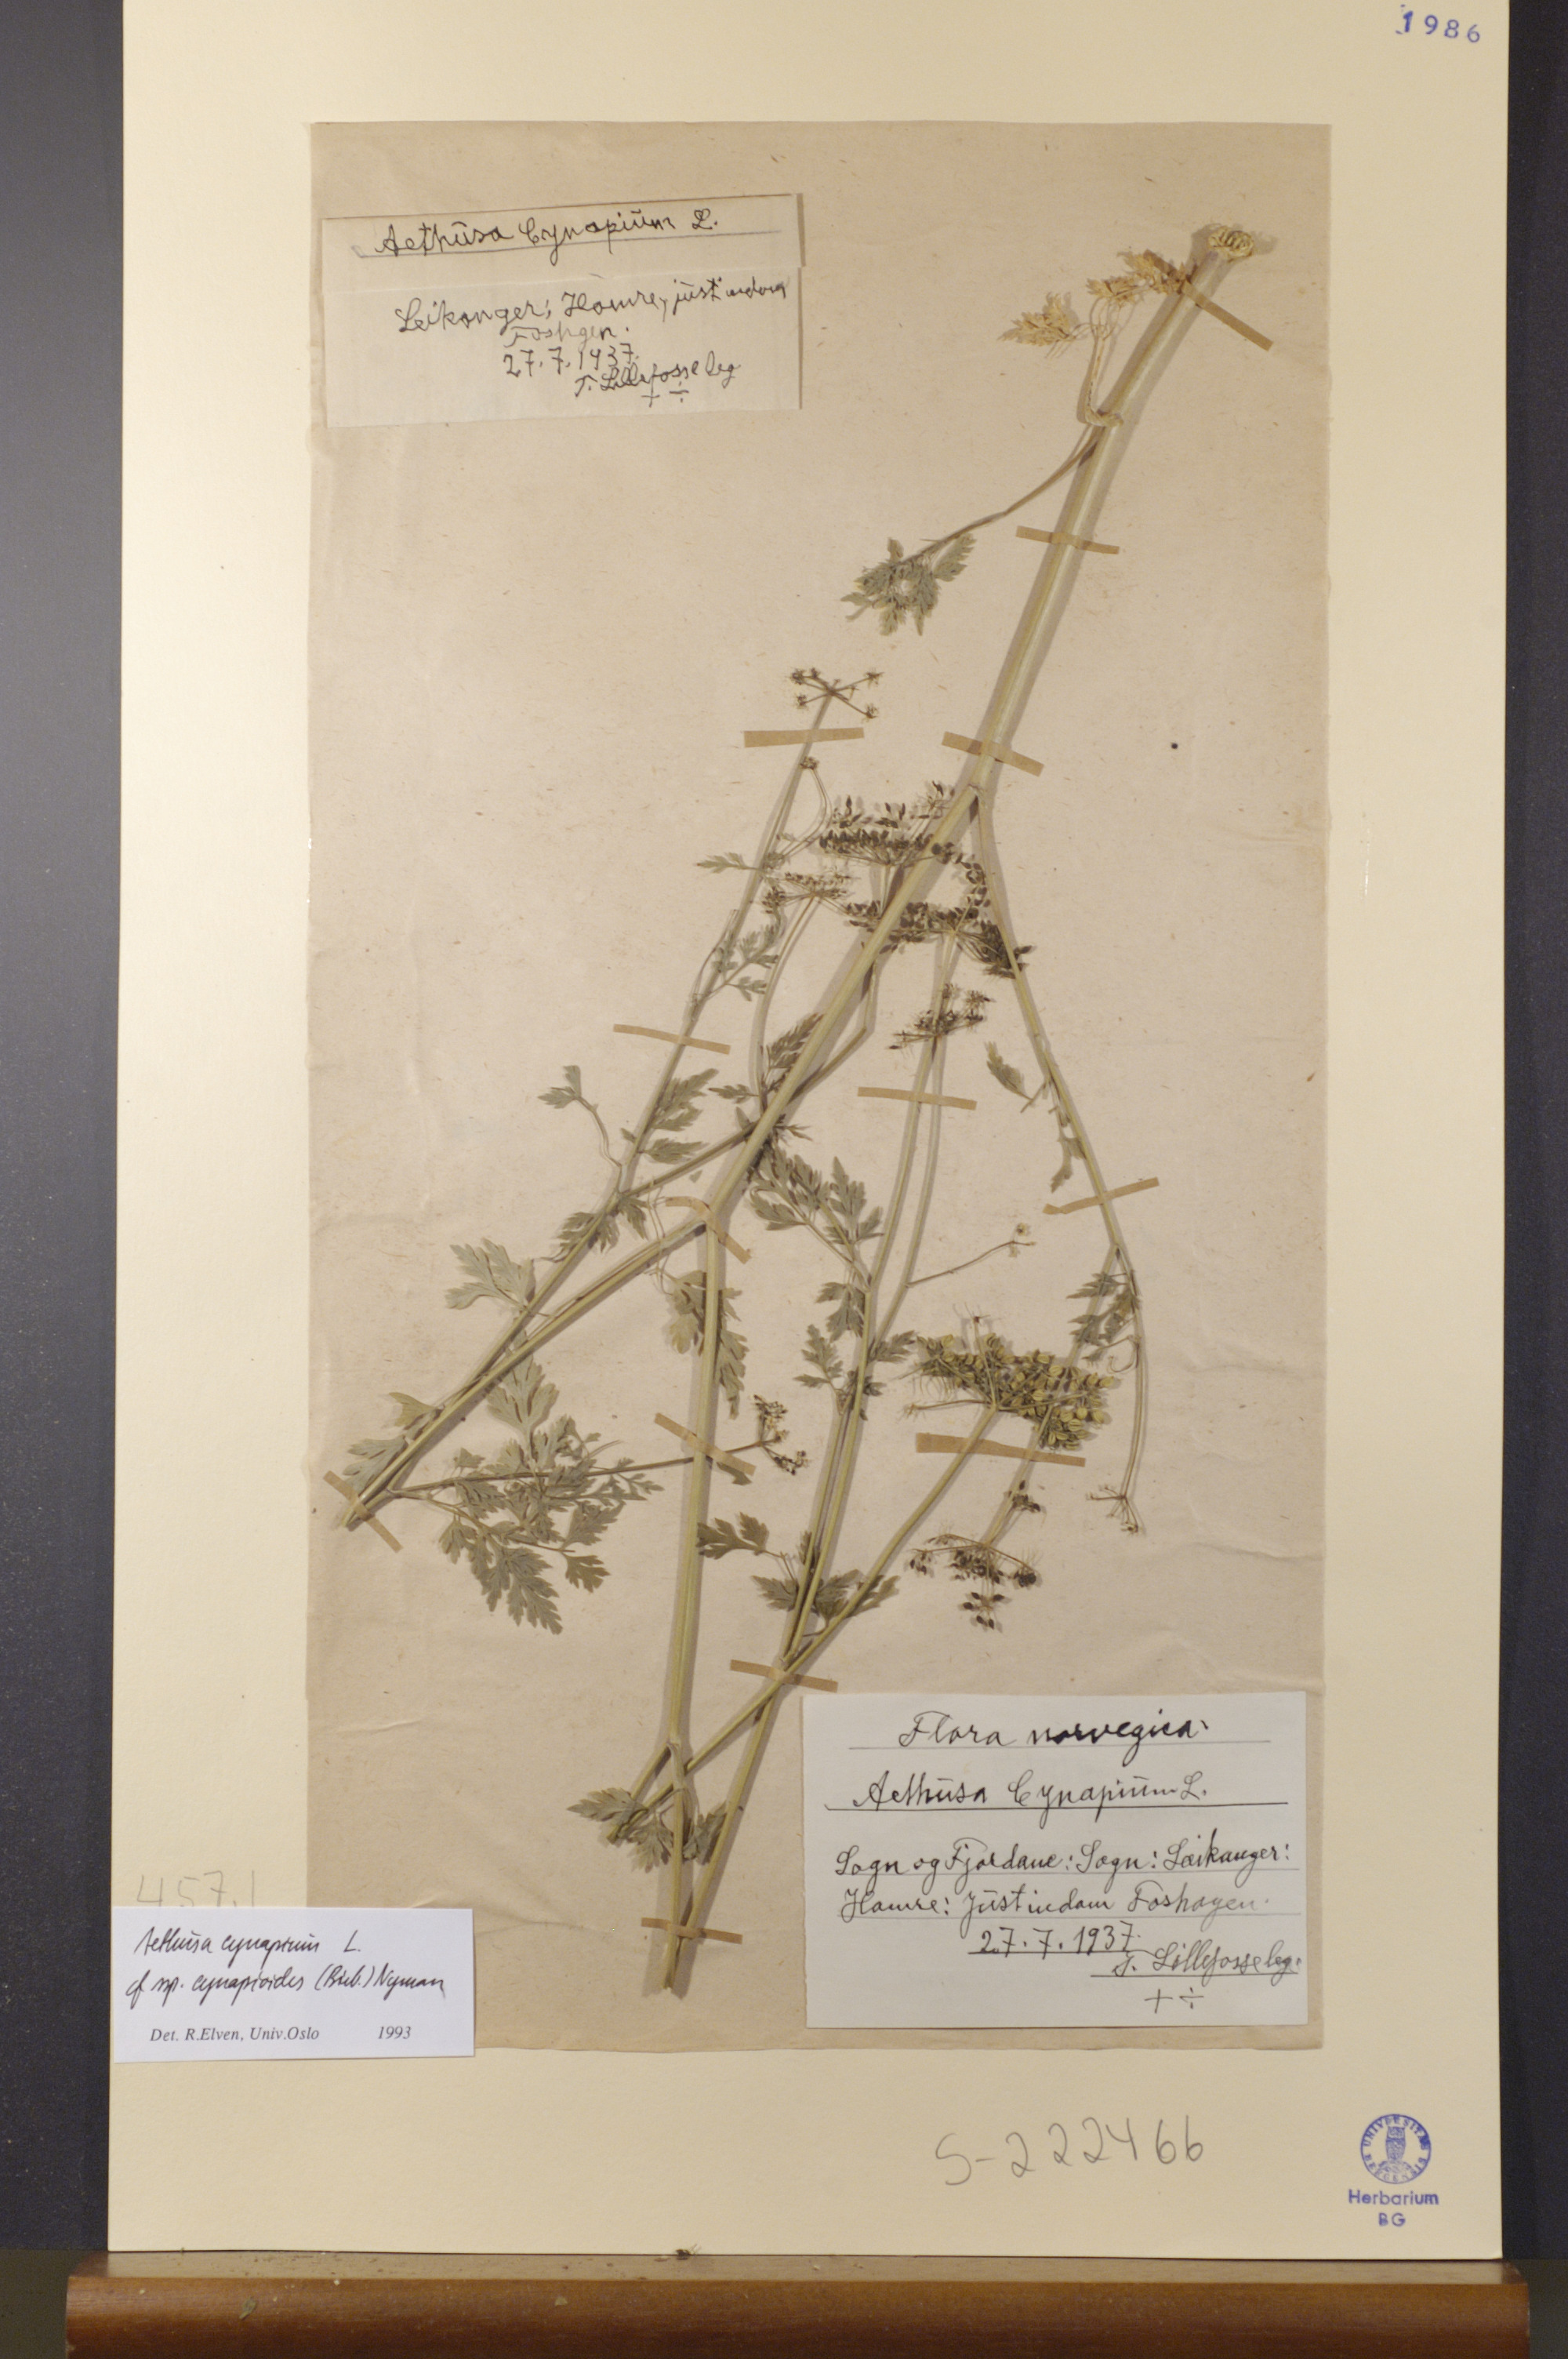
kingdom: Plantae
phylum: Tracheophyta
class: Magnoliopsida
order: Apiales
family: Apiaceae
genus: Aethusa
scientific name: Aethusa cynapium
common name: Fool's parsley
